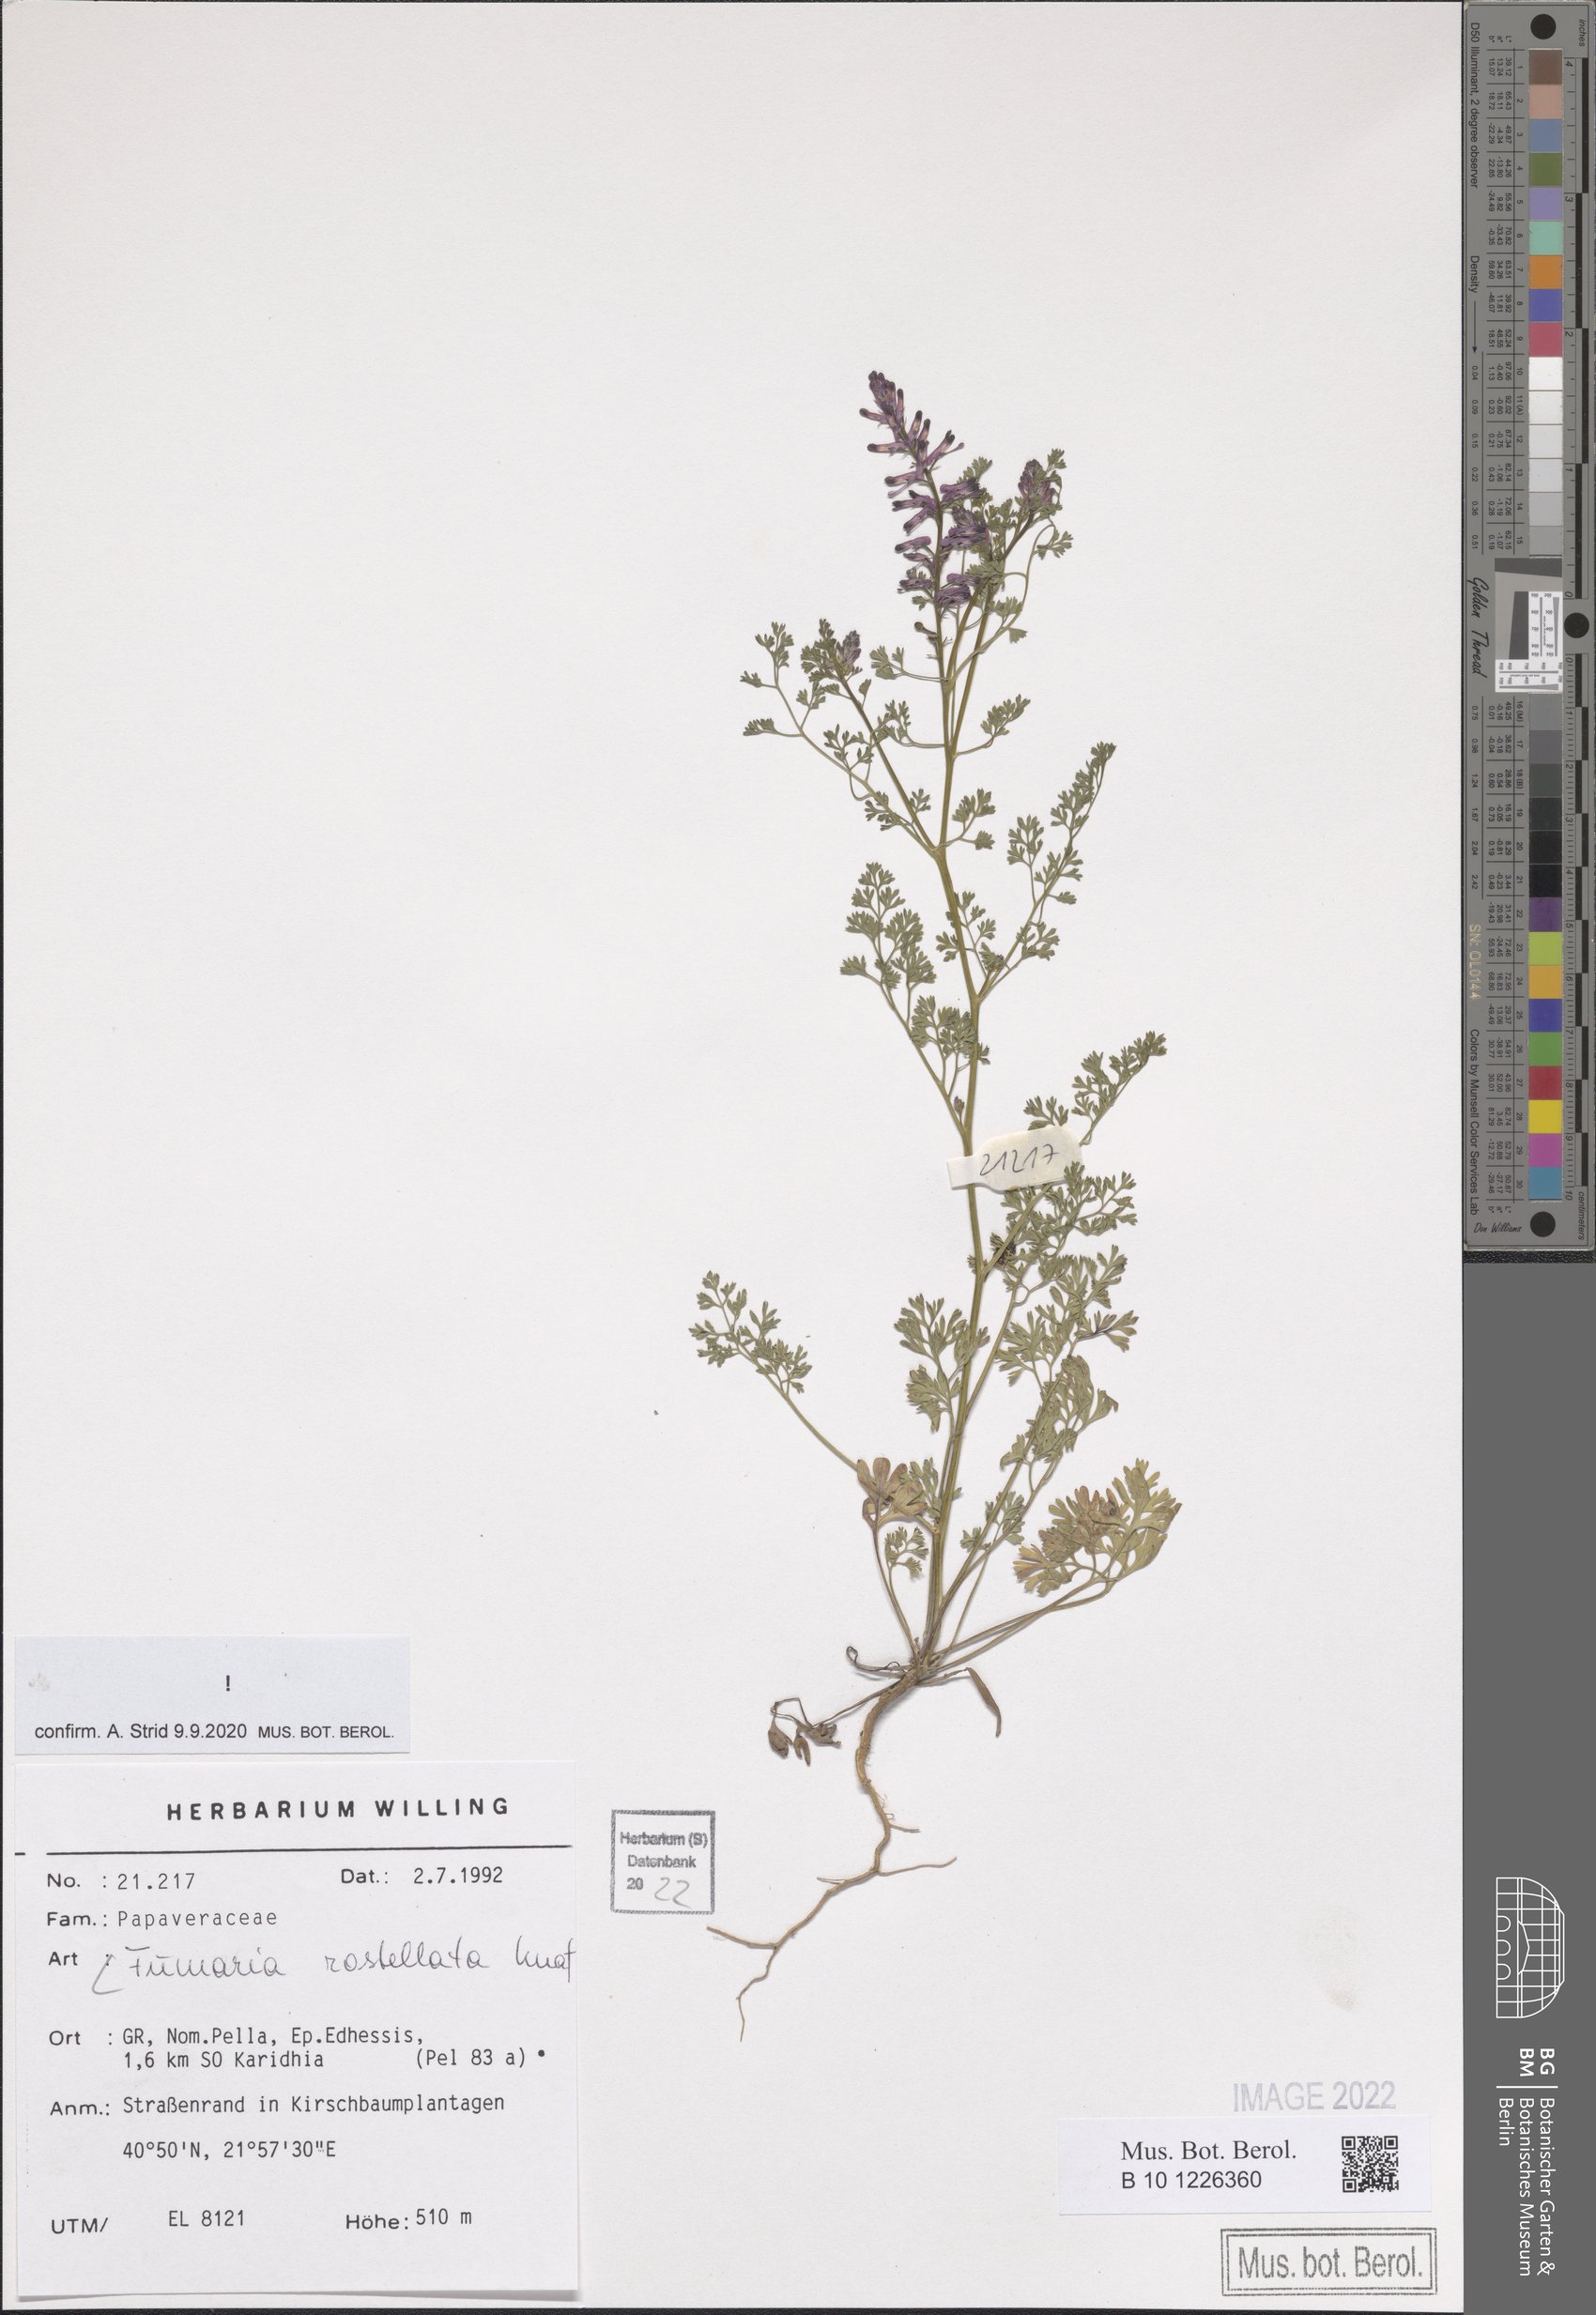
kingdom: Plantae
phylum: Tracheophyta
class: Magnoliopsida
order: Ranunculales
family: Papaveraceae
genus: Fumaria
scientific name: Fumaria rostellata
